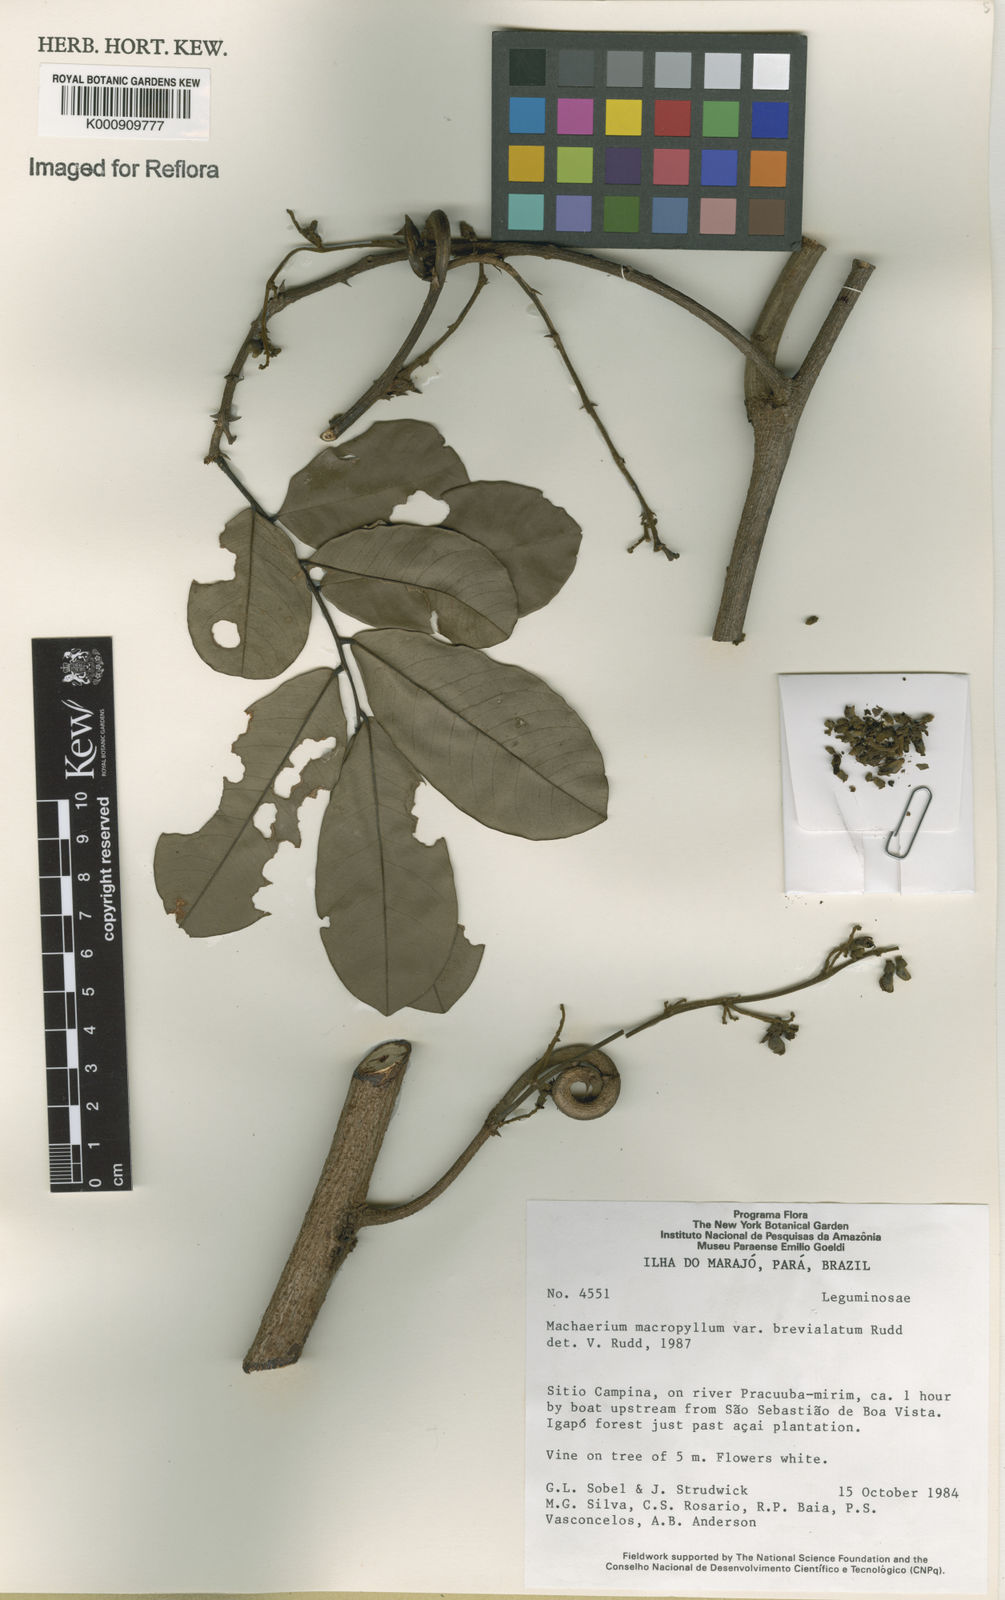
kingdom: Plantae
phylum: Tracheophyta
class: Magnoliopsida
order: Fabales
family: Fabaceae
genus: Machaerium
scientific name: Machaerium macrophyllum
